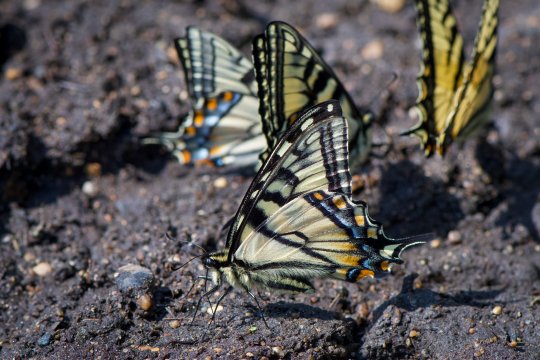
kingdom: Animalia
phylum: Arthropoda
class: Insecta
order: Lepidoptera
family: Papilionidae
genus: Pterourus
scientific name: Pterourus canadensis
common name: Canadian Tiger Swallowtail
